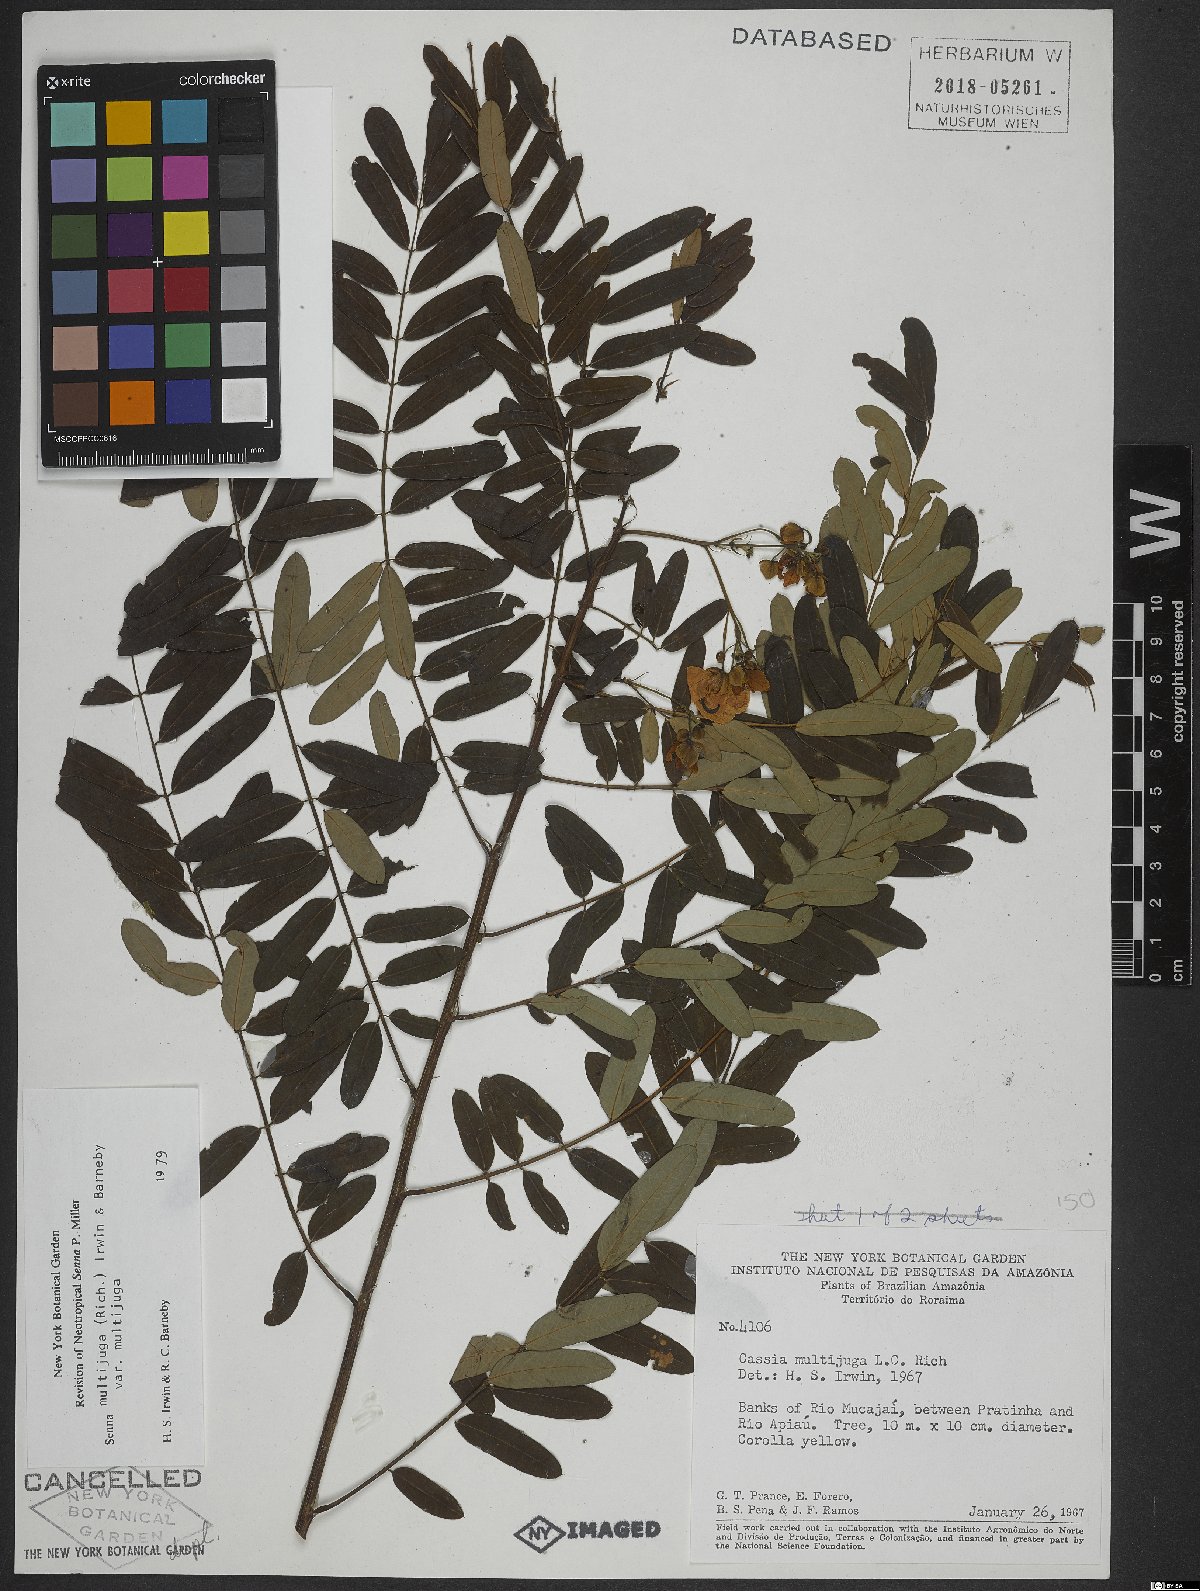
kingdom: Plantae
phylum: Tracheophyta
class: Magnoliopsida
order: Fabales
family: Fabaceae
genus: Senna
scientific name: Senna multijuga
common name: False sicklepod
